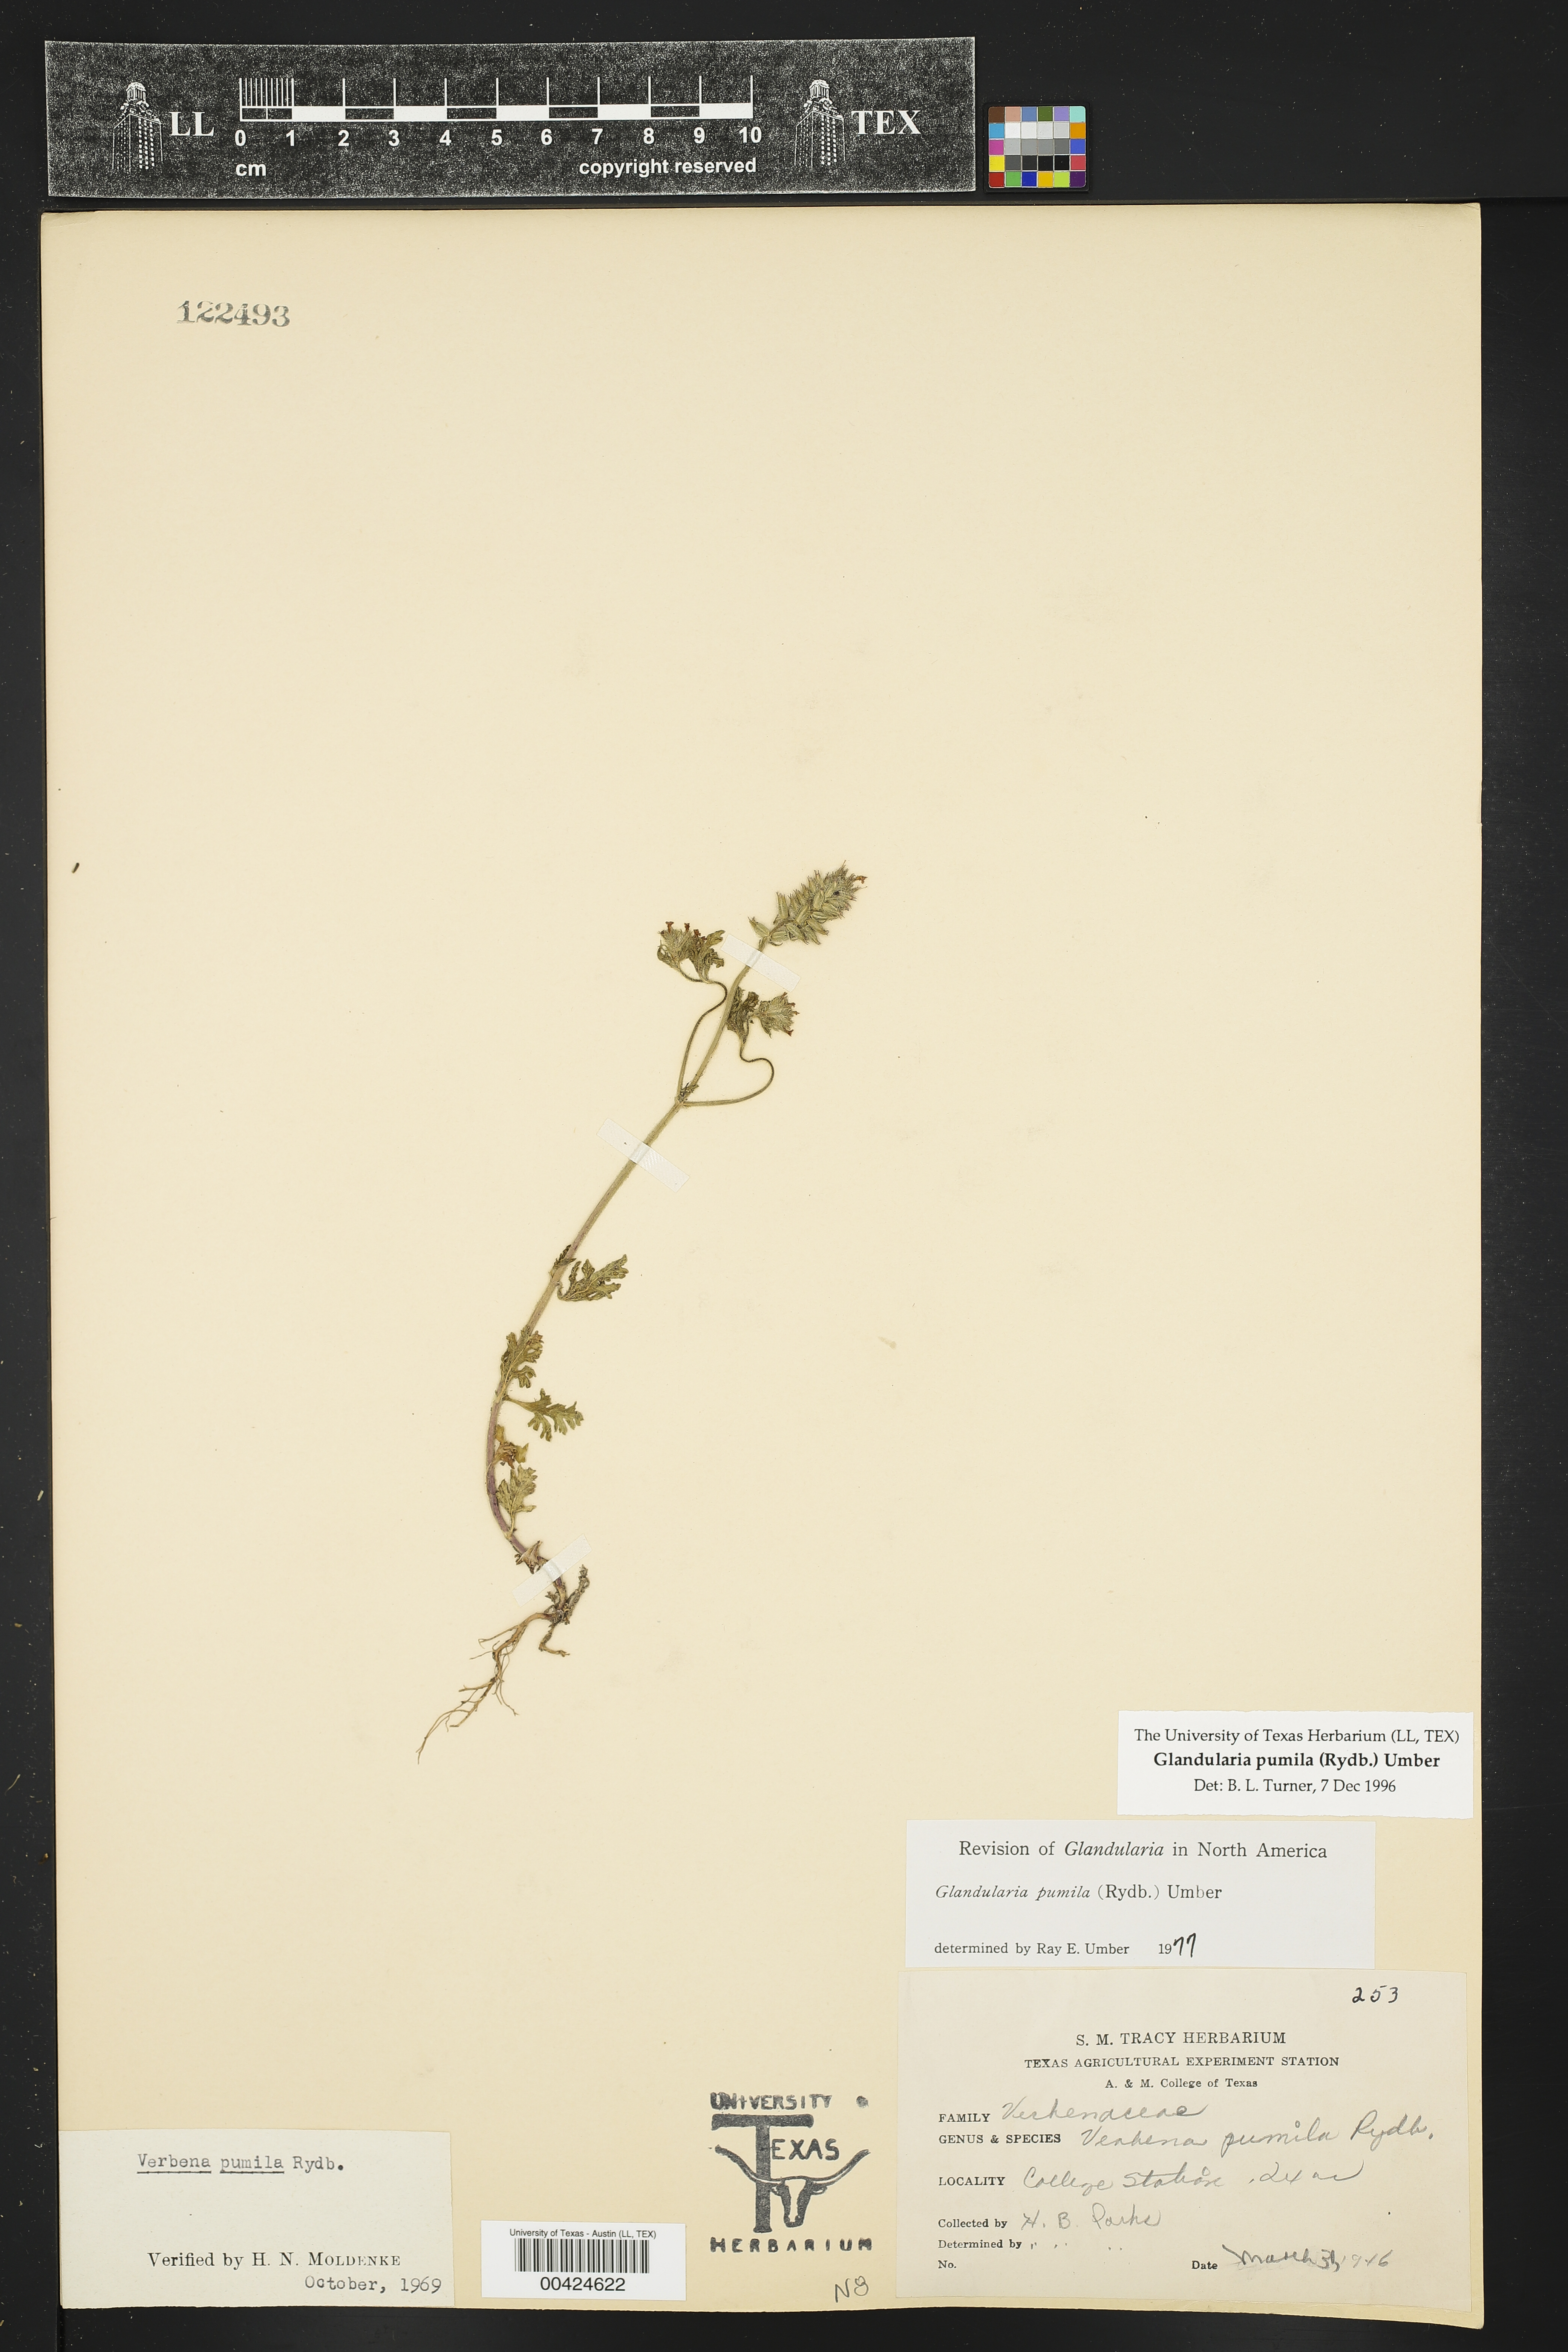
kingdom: Plantae
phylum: Tracheophyta
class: Magnoliopsida
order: Lamiales
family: Verbenaceae
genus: Verbena
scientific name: Verbena pumila
